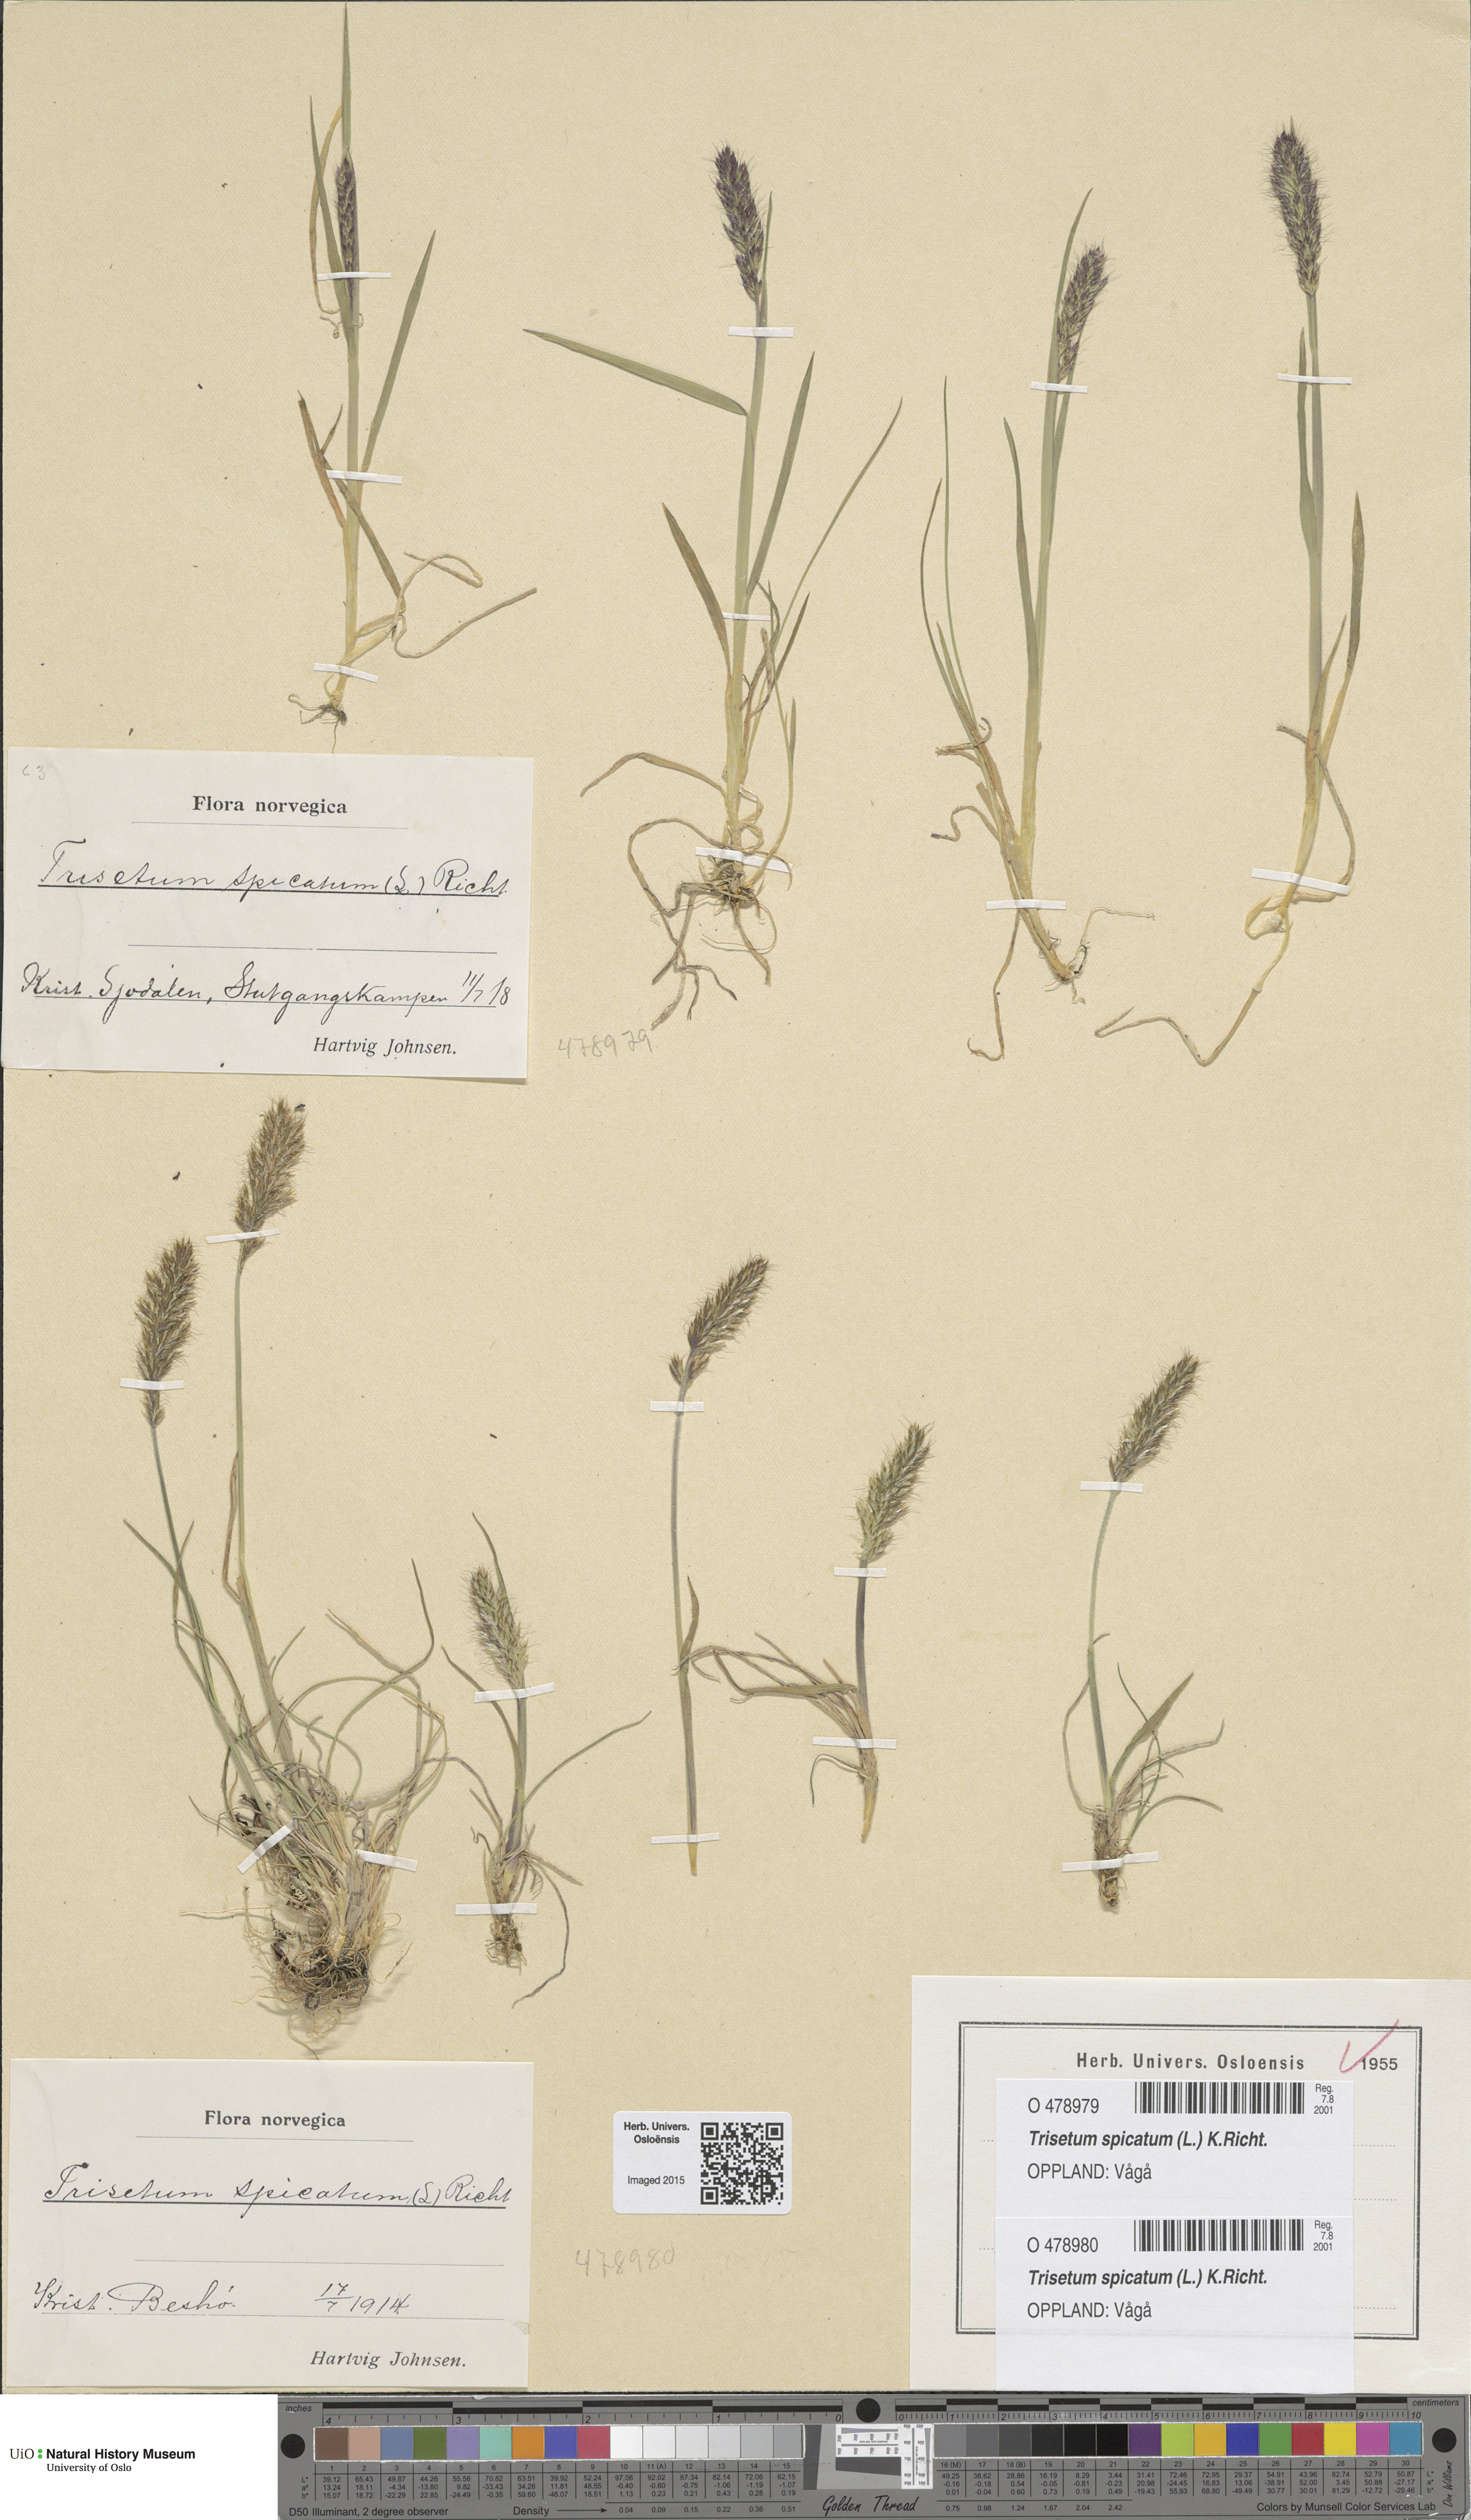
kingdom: Plantae
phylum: Tracheophyta
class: Liliopsida
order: Poales
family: Poaceae
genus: Koeleria
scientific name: Koeleria spicata
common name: Mountain trisetum
